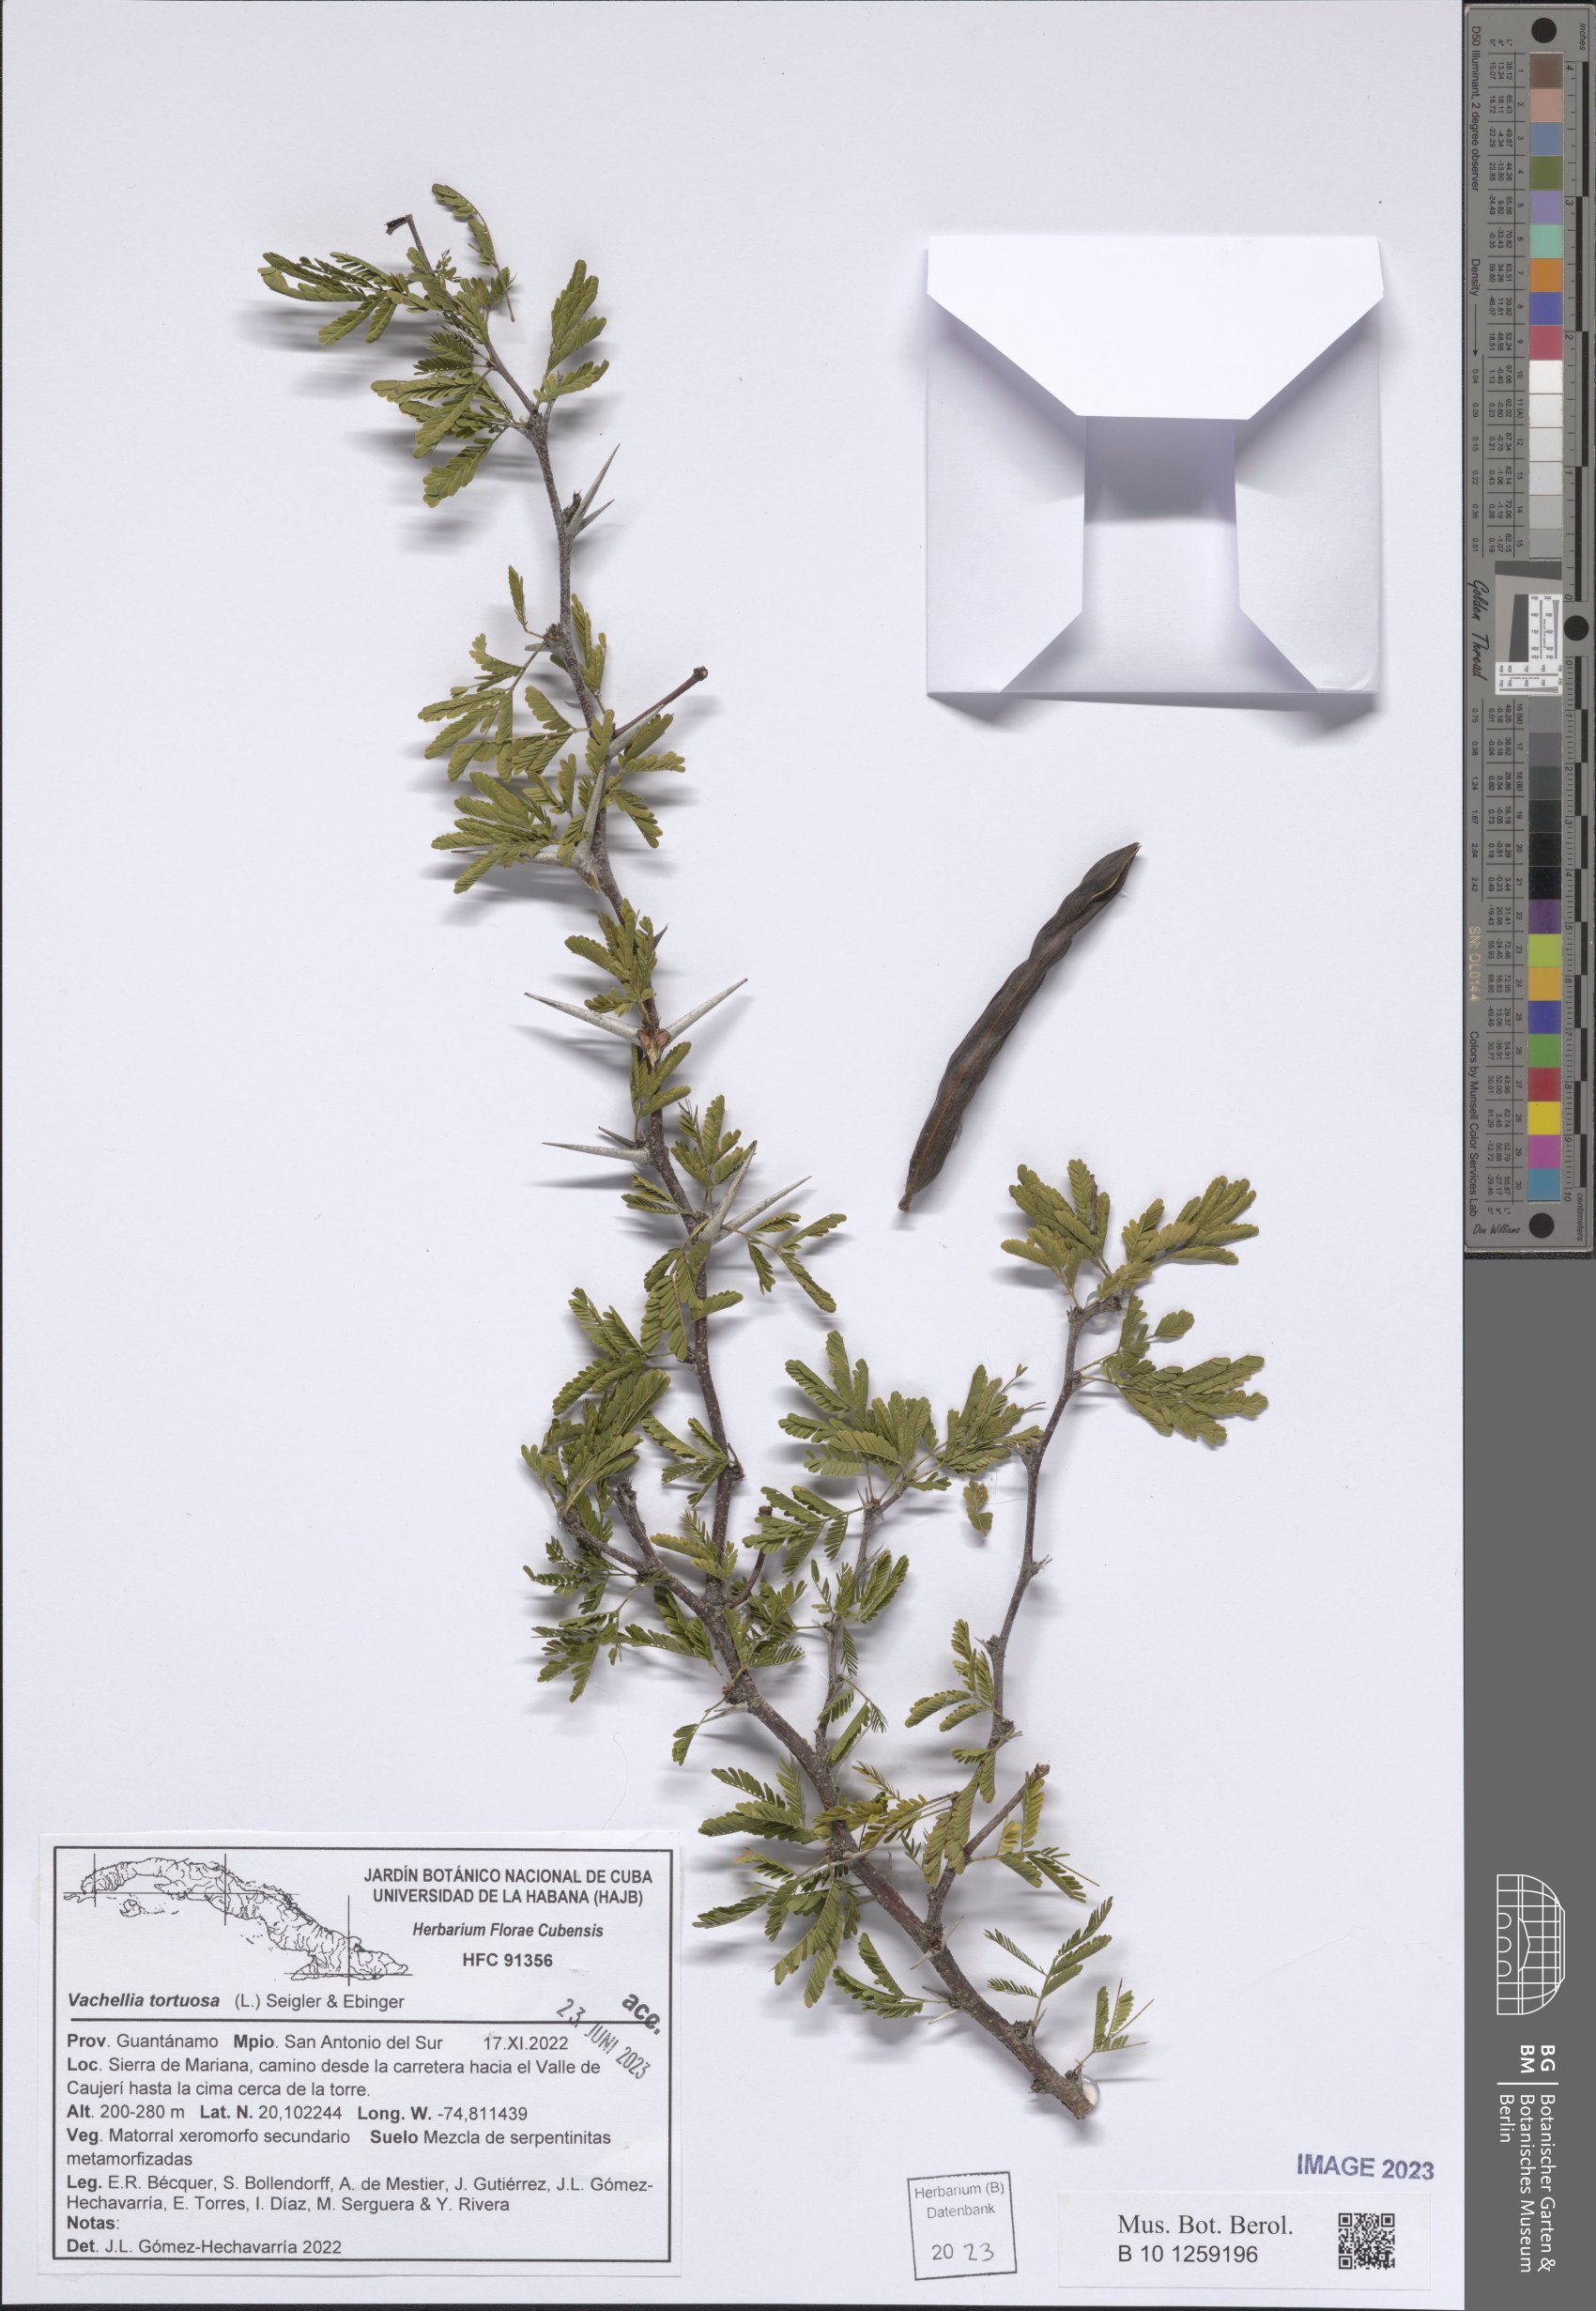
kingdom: Plantae
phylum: Tracheophyta
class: Magnoliopsida
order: Fabales
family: Fabaceae
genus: Vachellia
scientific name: Vachellia tortuosa
